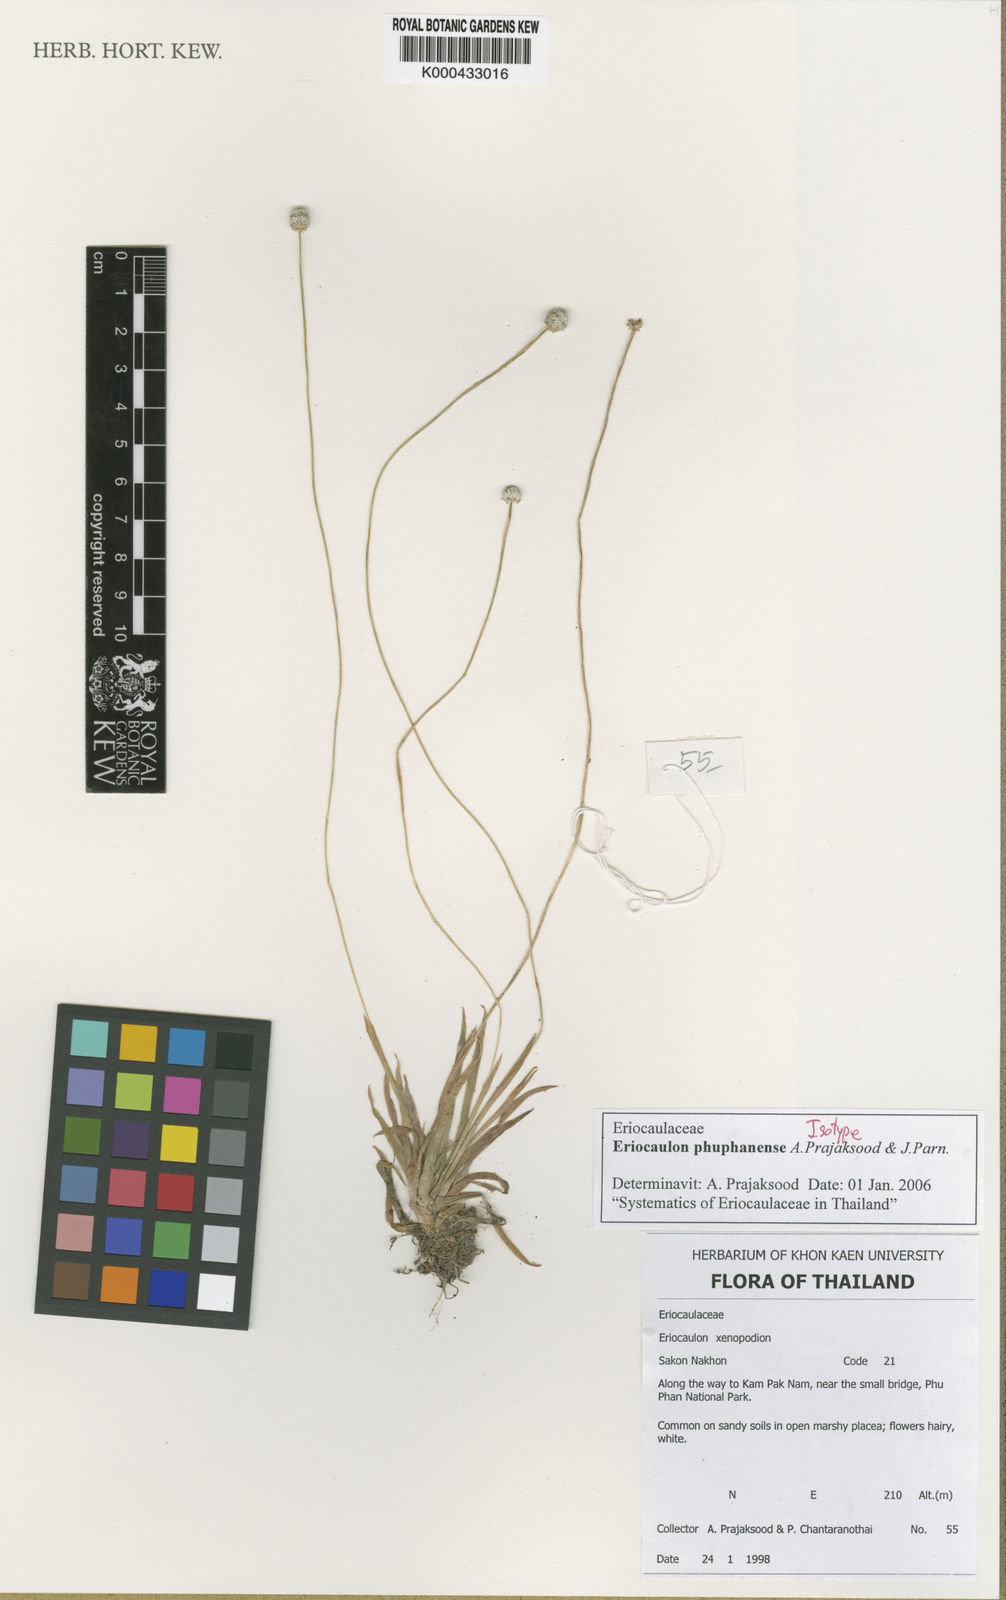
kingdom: Plantae
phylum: Tracheophyta
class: Liliopsida
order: Poales
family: Eriocaulaceae
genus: Eriocaulon
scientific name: Eriocaulon phuphanense
